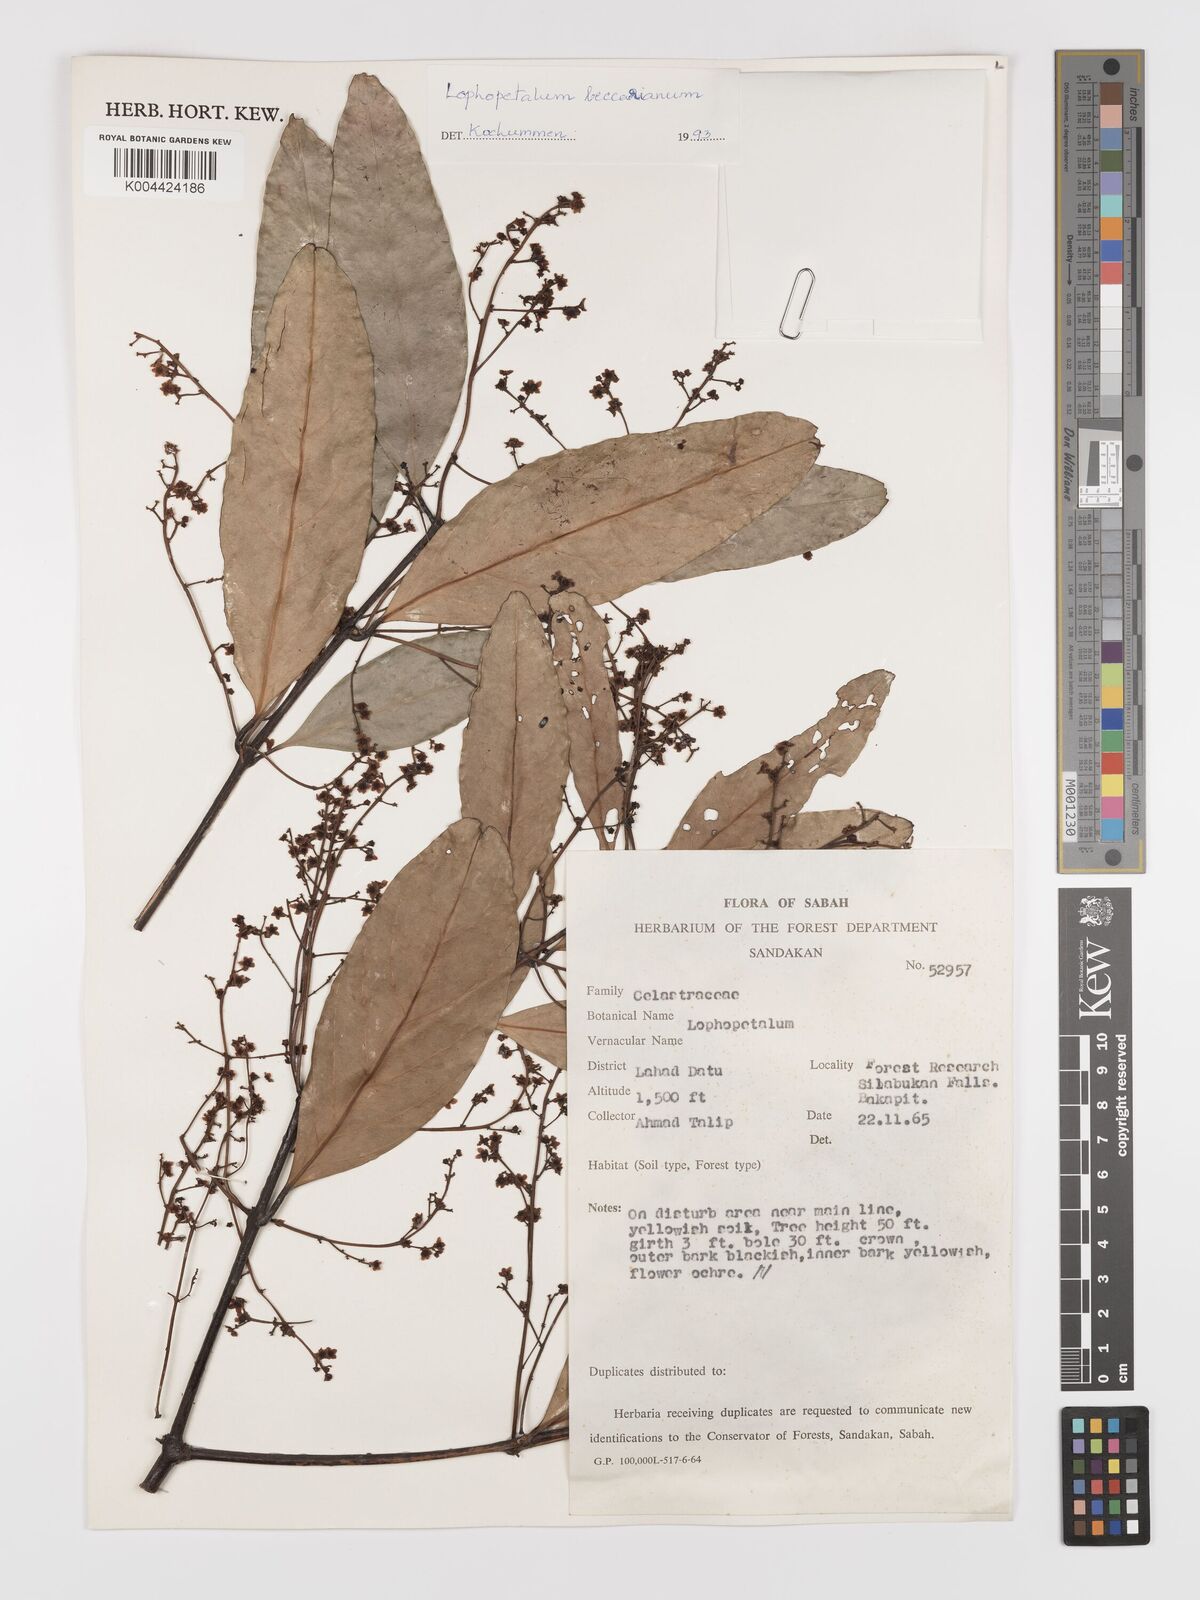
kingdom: Plantae
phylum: Tracheophyta
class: Magnoliopsida
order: Celastrales
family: Celastraceae
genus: Lophopetalum
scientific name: Lophopetalum beccarianum
